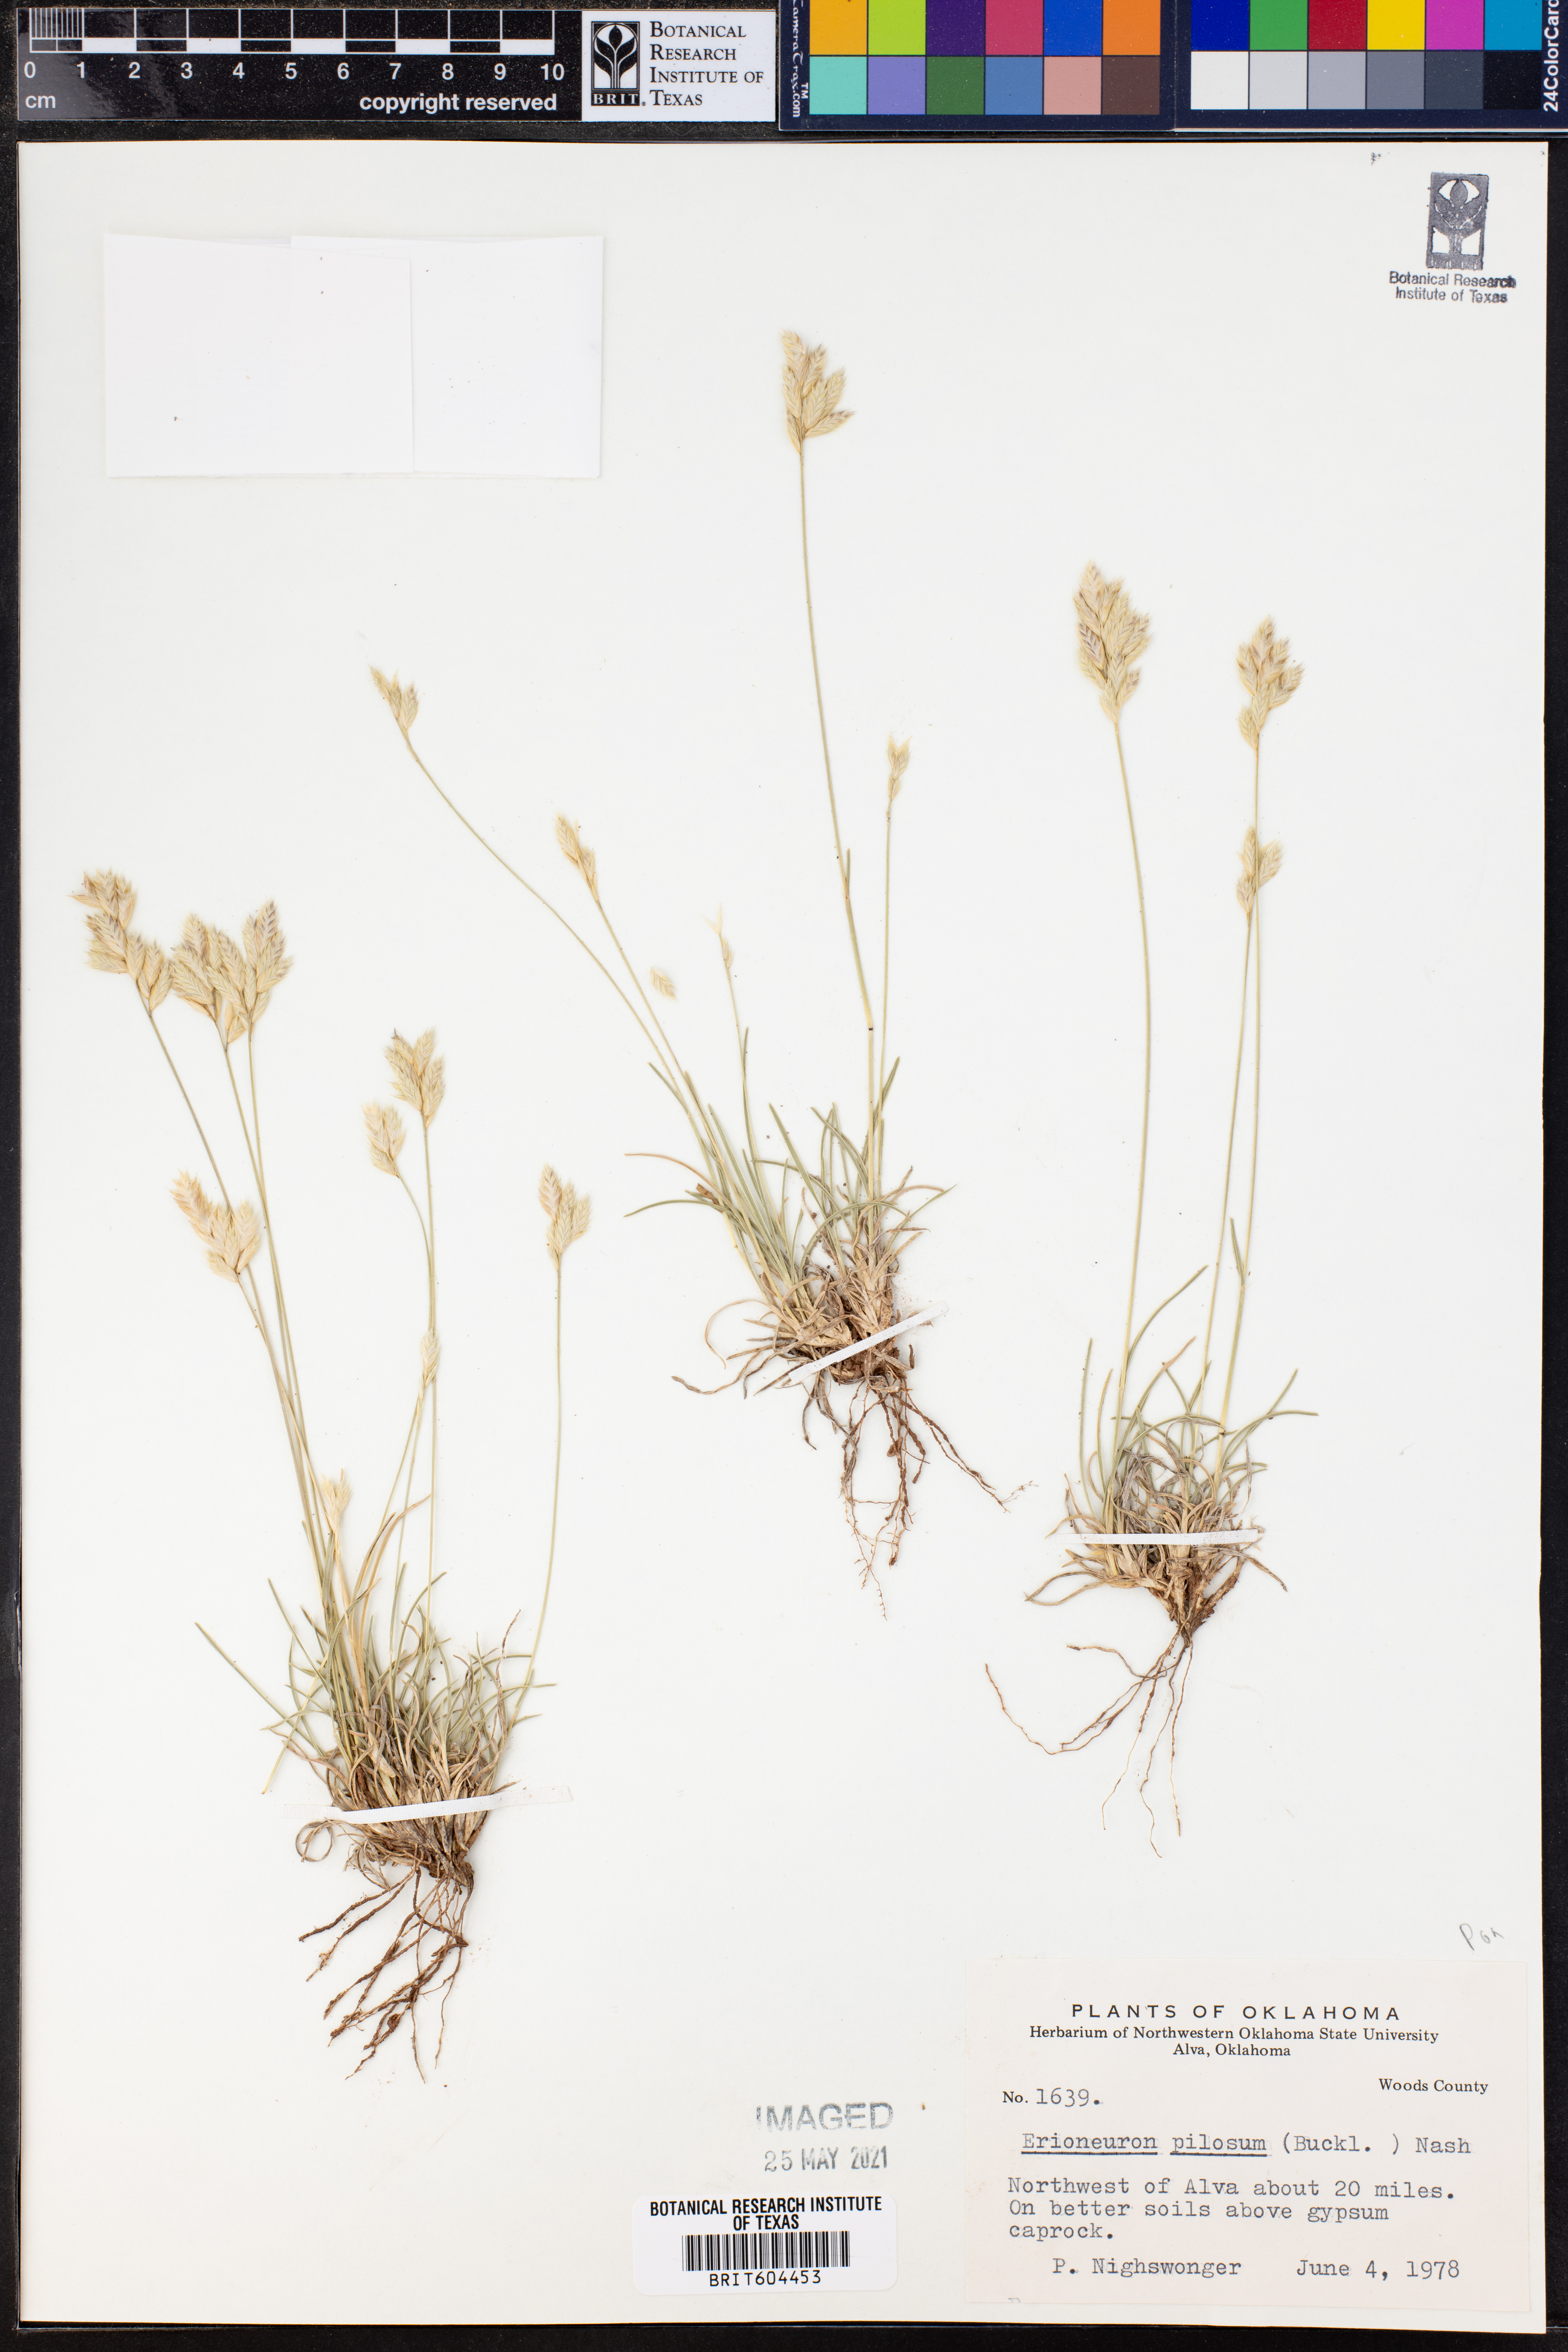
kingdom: Plantae
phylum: Tracheophyta
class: Liliopsida
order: Poales
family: Poaceae
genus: Erioneuron
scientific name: Erioneuron pilosum
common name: Hairy woolly grass
